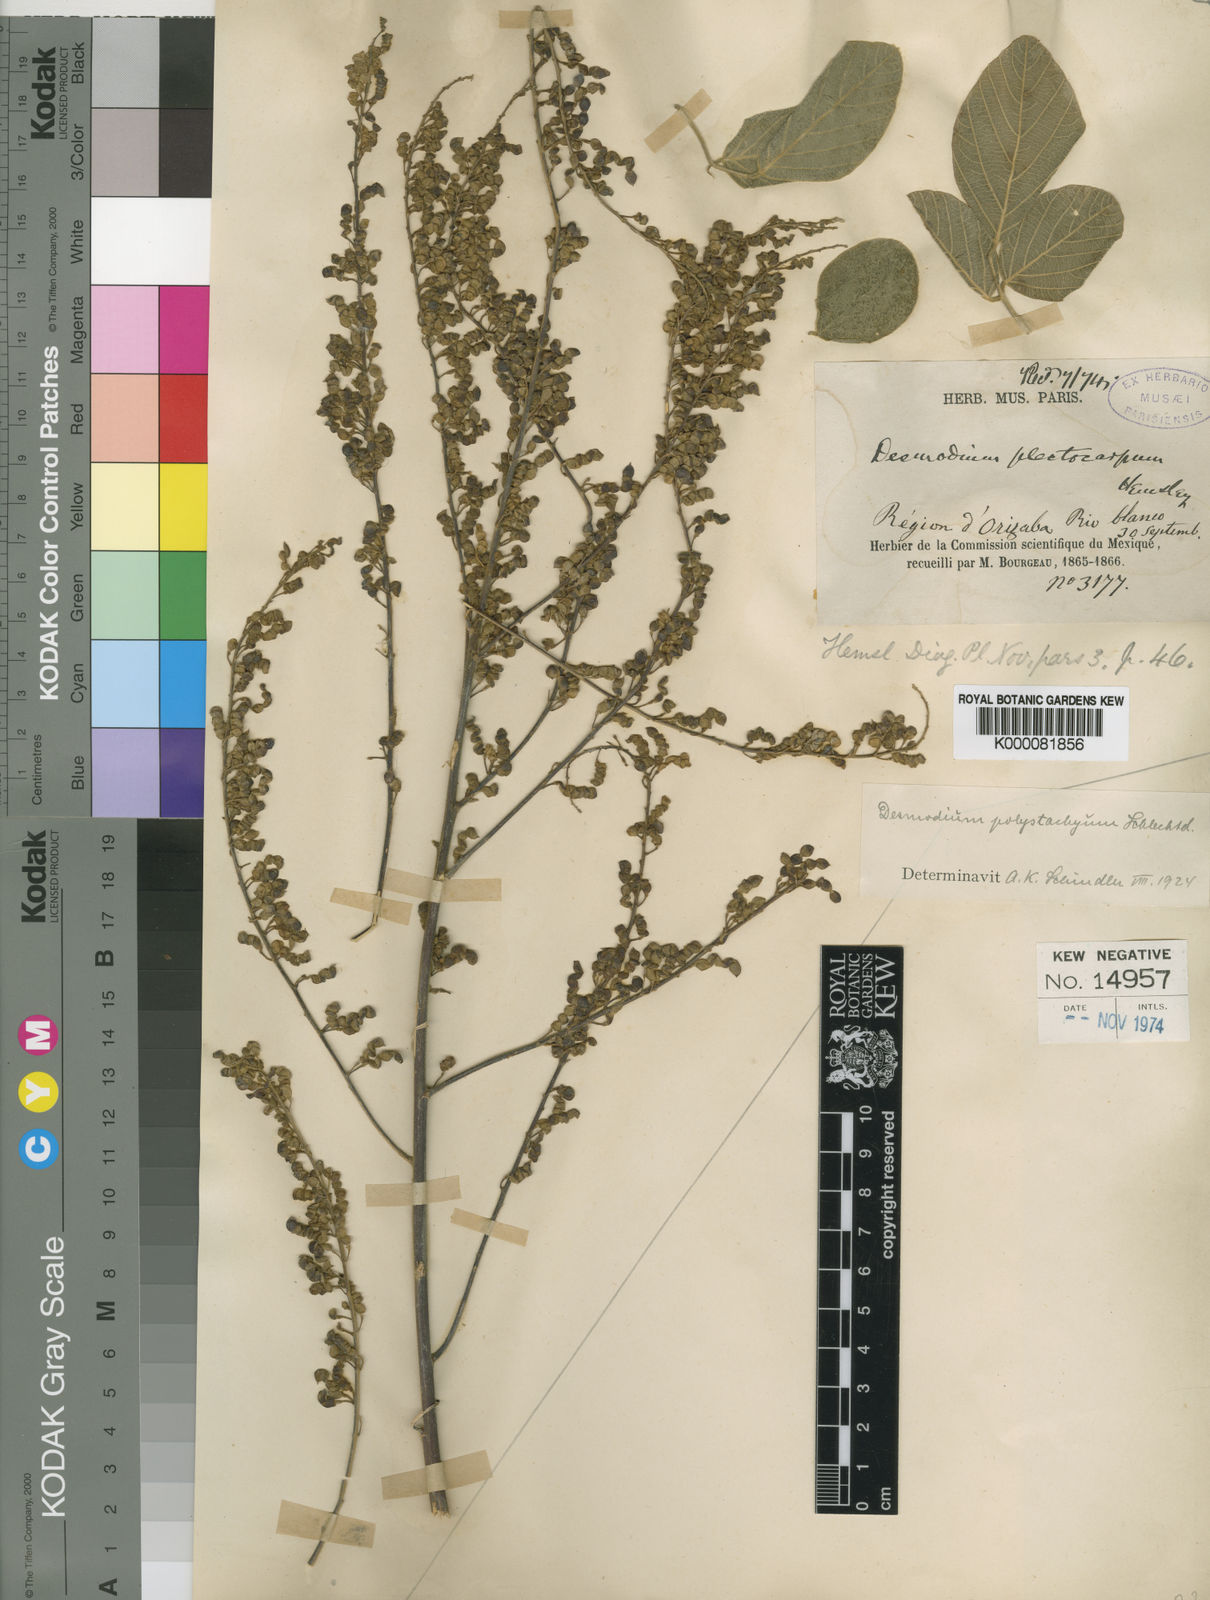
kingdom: Plantae
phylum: Tracheophyta
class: Magnoliopsida
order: Fabales
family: Fabaceae
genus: Desmodium
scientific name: Desmodium polystachyum
